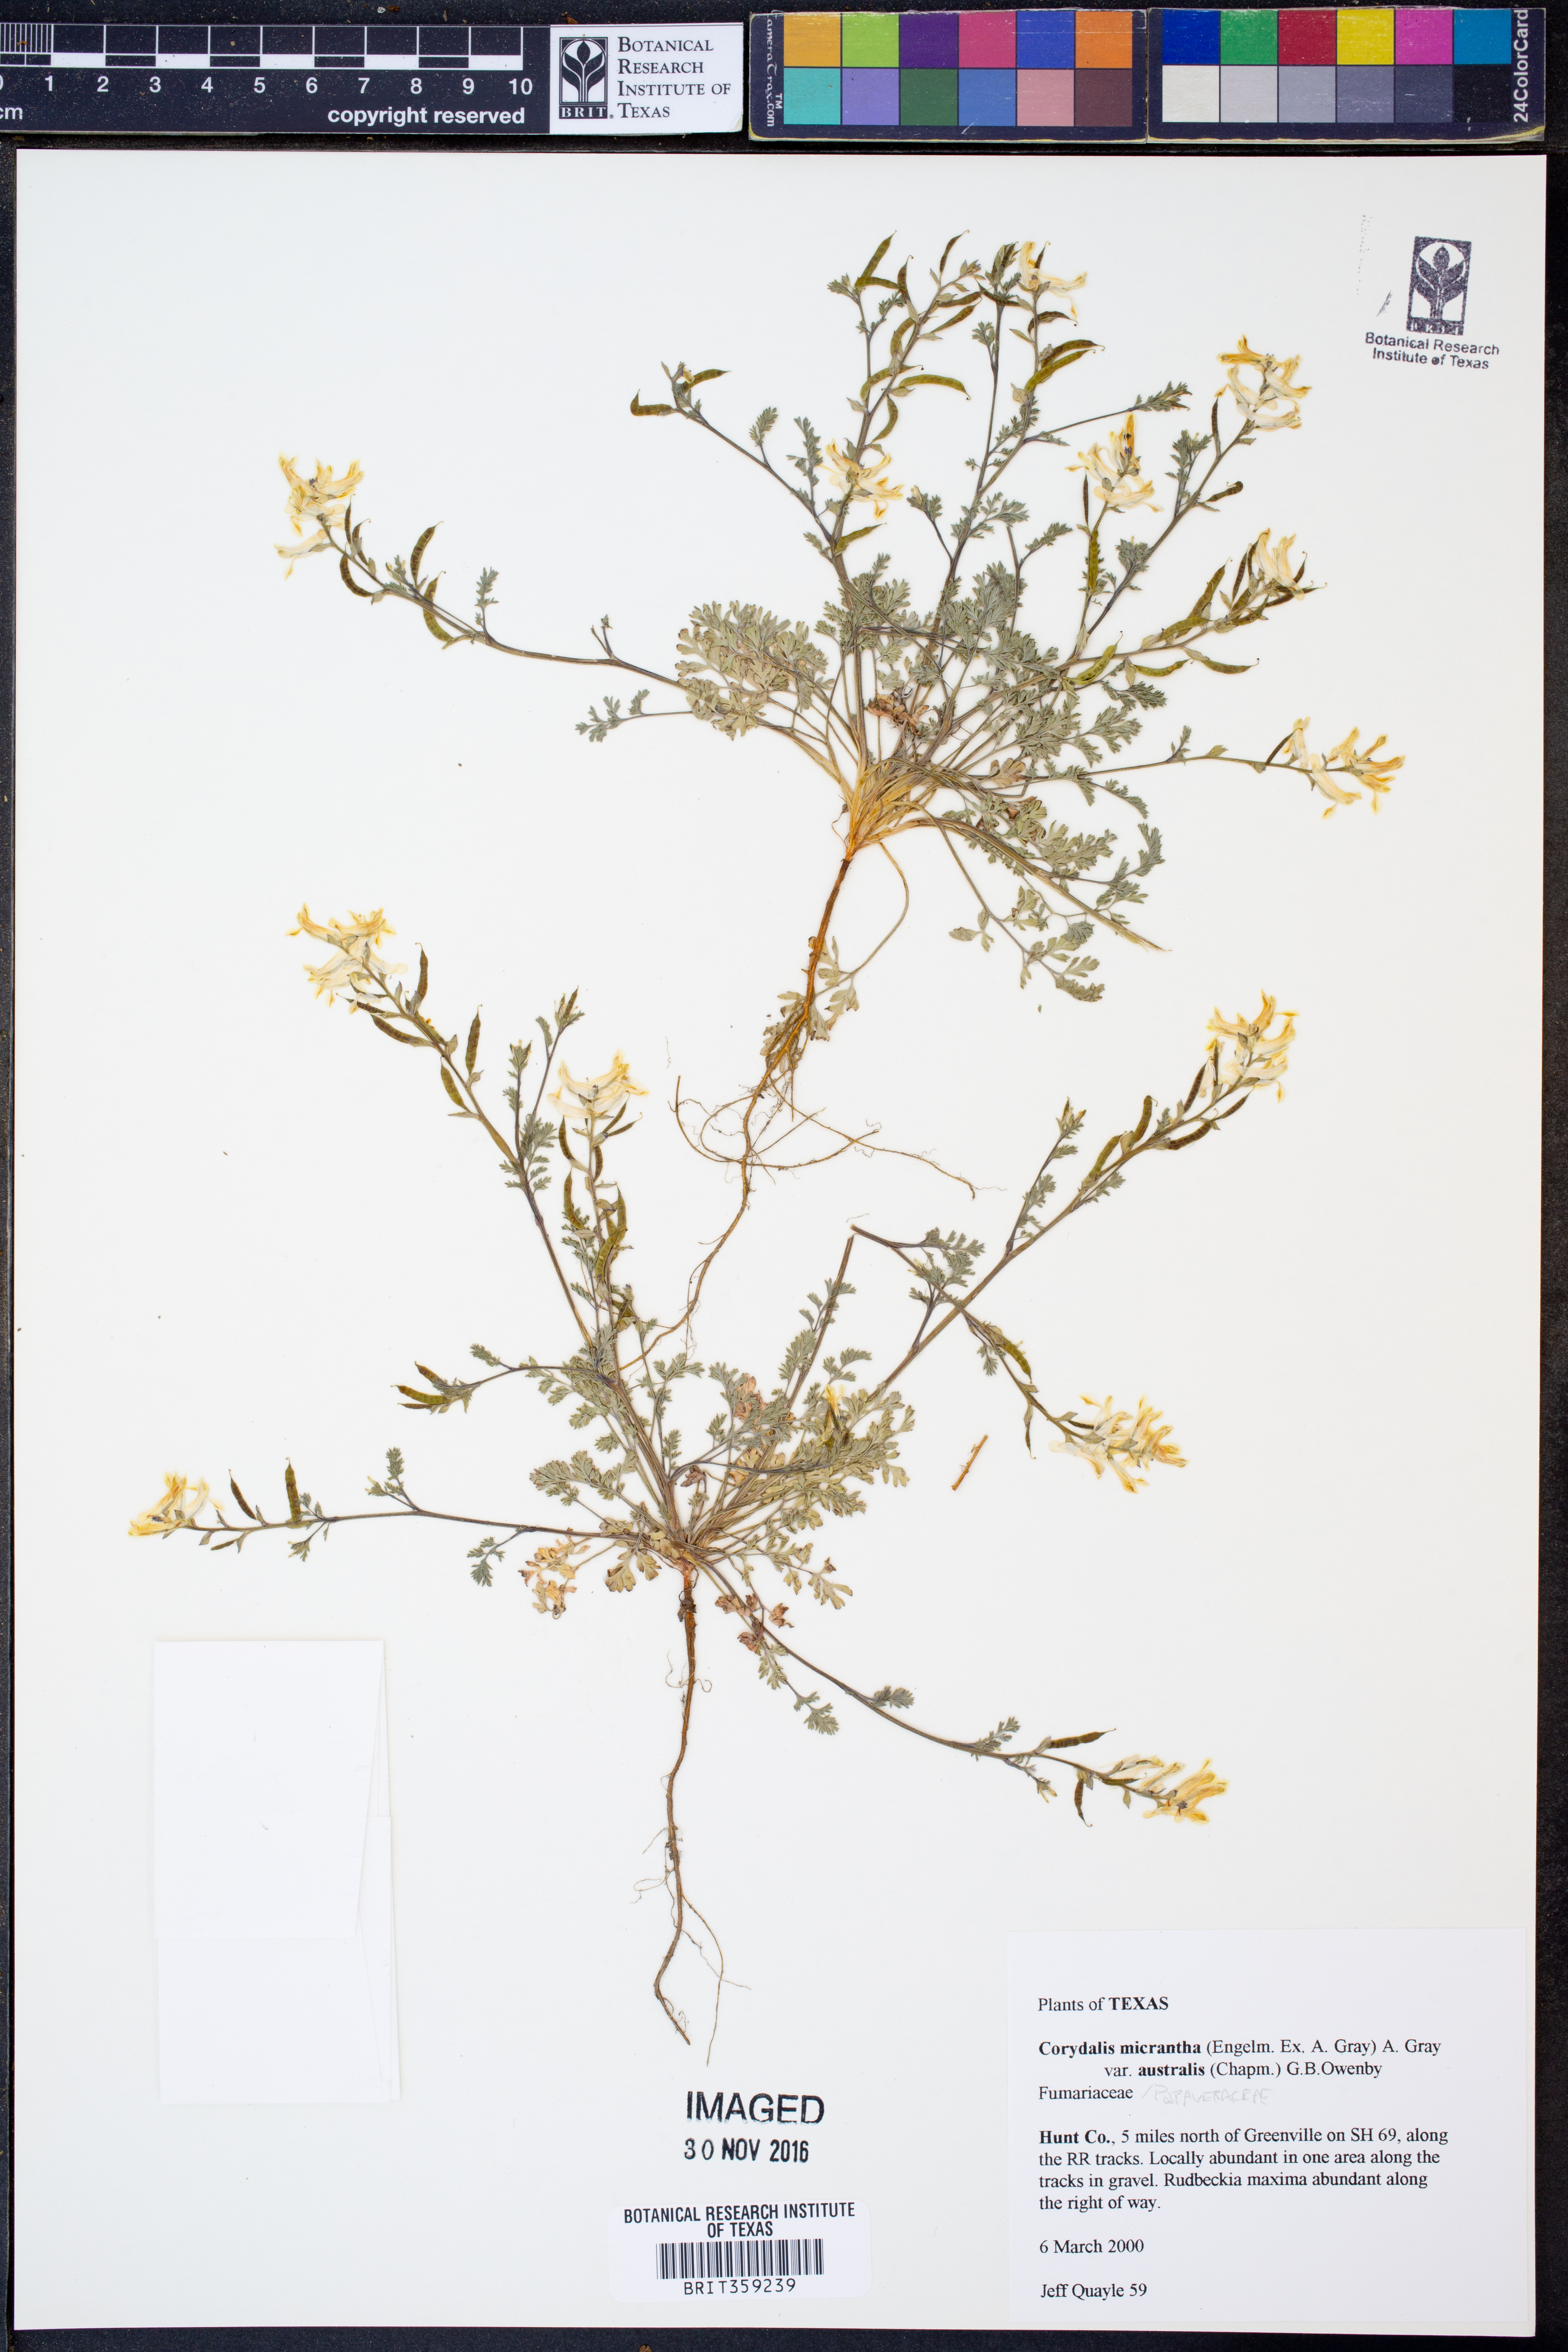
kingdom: Plantae
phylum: Tracheophyta
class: Magnoliopsida
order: Ranunculales
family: Papaveraceae
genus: Corydalis
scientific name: Corydalis micrantha
